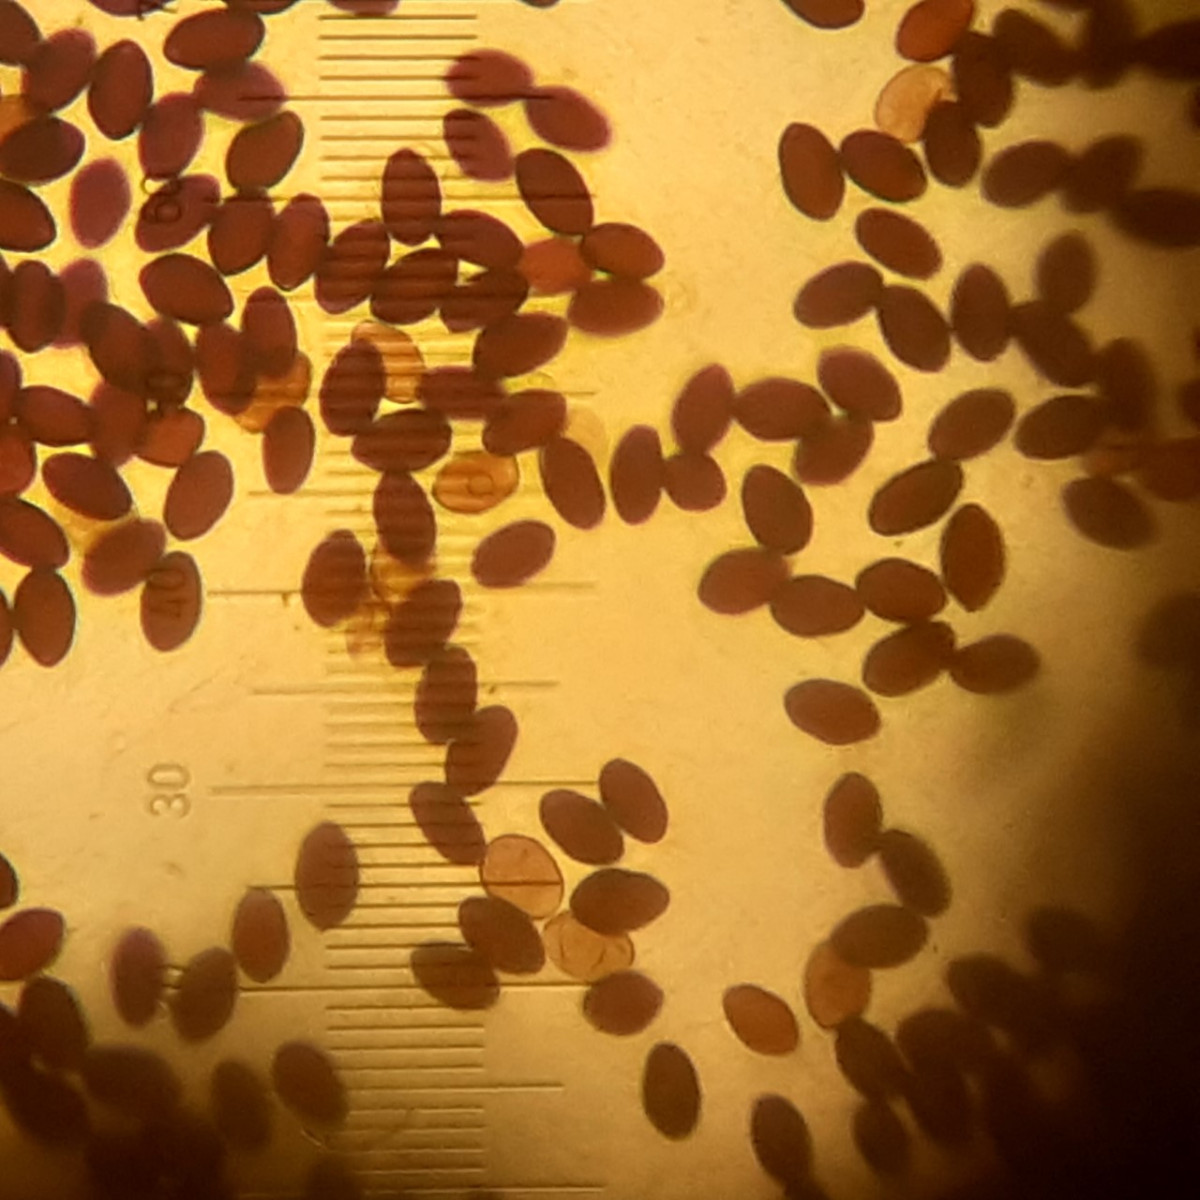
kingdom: Fungi
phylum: Basidiomycota
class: Agaricomycetes
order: Agaricales
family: Psathyrellaceae
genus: Parasola
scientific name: Parasola plicatilis
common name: plæne-hjulhat
